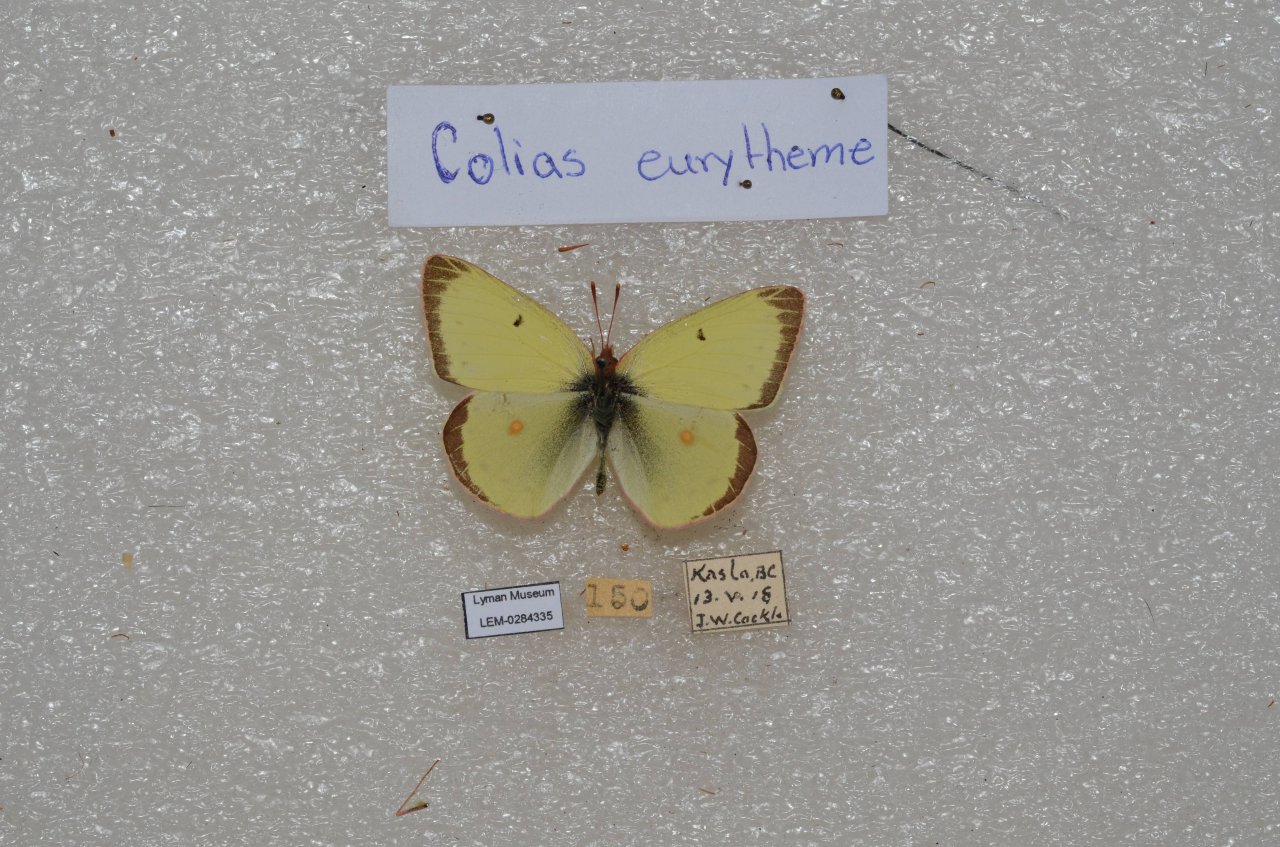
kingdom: Animalia
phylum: Arthropoda
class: Insecta
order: Lepidoptera
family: Pieridae
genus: Colias
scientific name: Colias eurytheme
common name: Orange Sulphur
